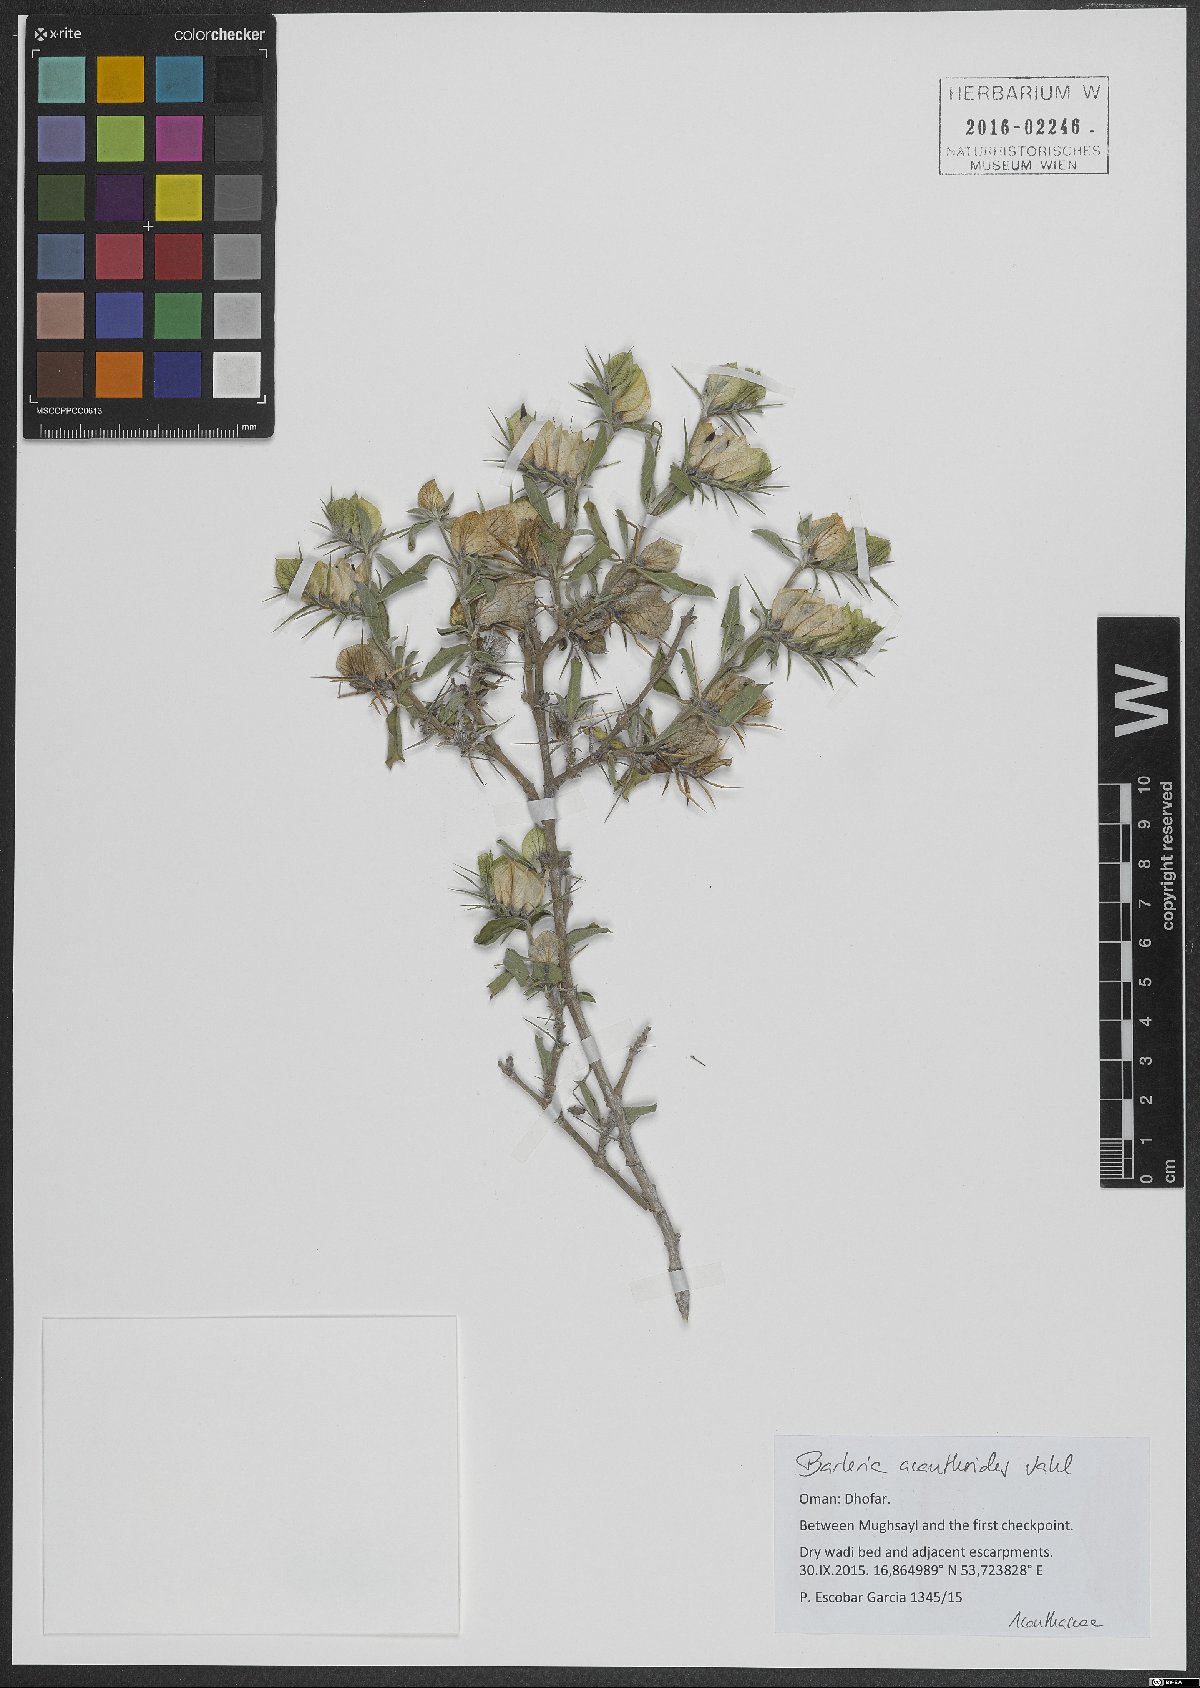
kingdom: Plantae
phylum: Tracheophyta
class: Magnoliopsida
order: Lamiales
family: Acanthaceae
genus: Barleria
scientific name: Barleria acanthoides
